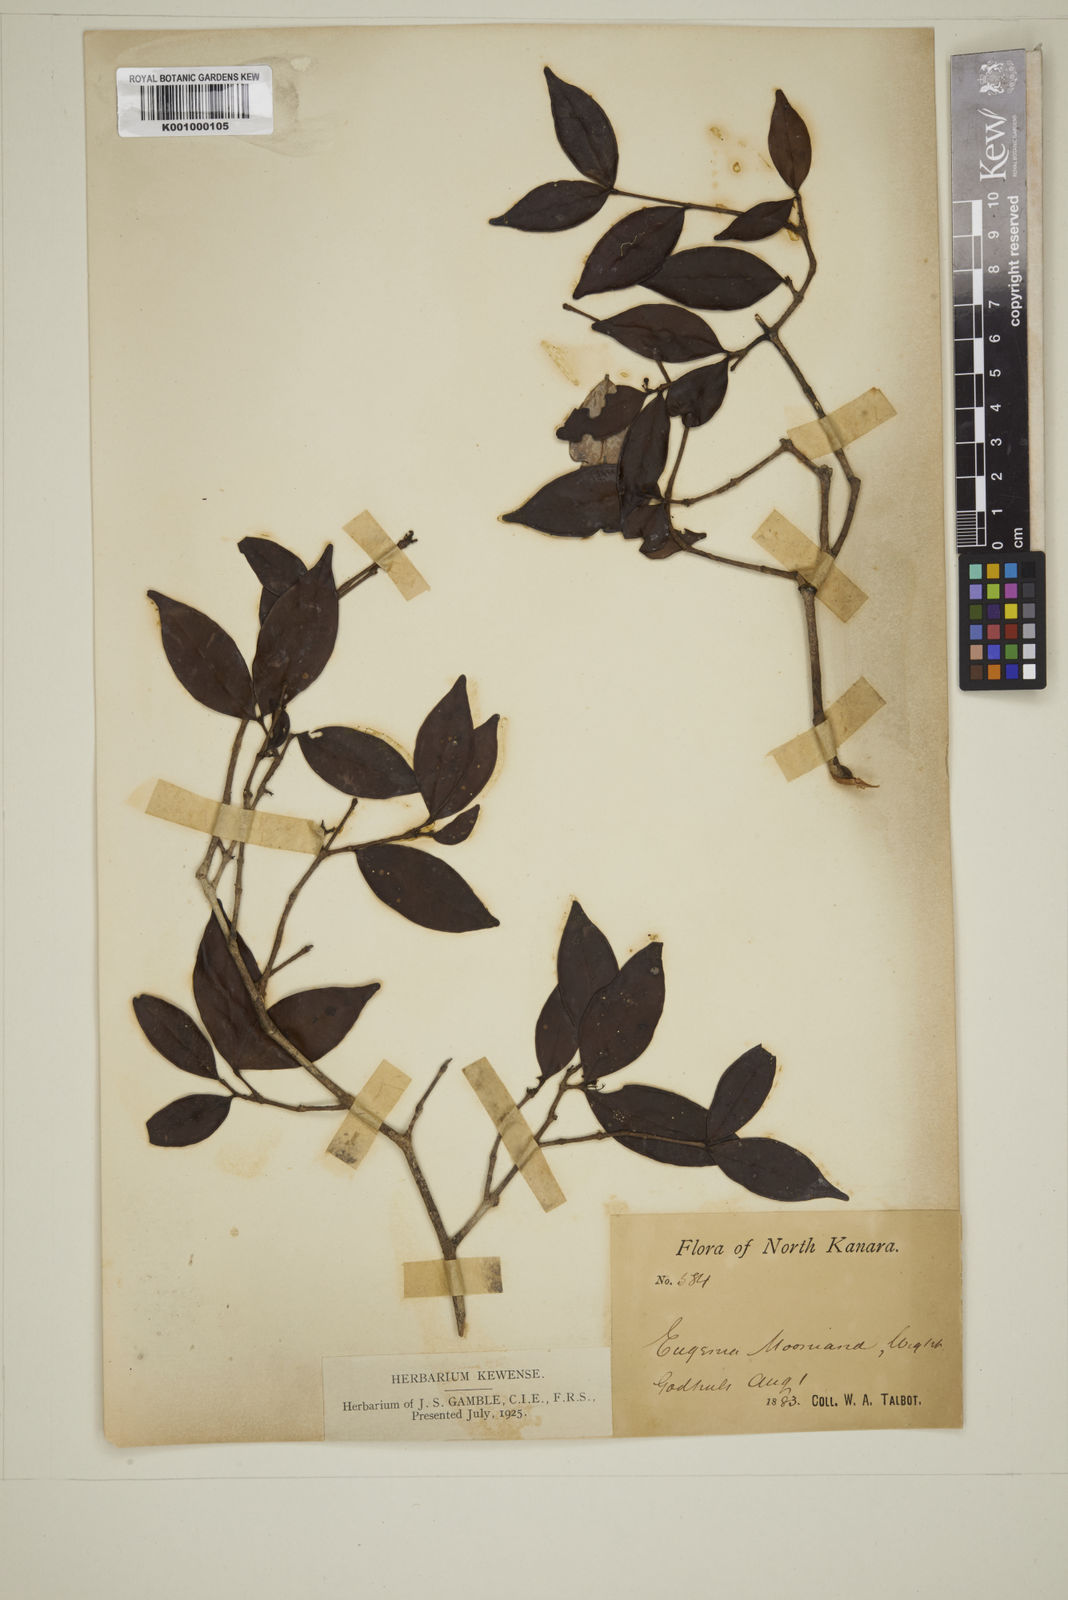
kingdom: Plantae
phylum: Tracheophyta
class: Magnoliopsida
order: Myrtales
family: Myrtaceae
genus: Eugenia
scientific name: Eugenia thwaitesii
